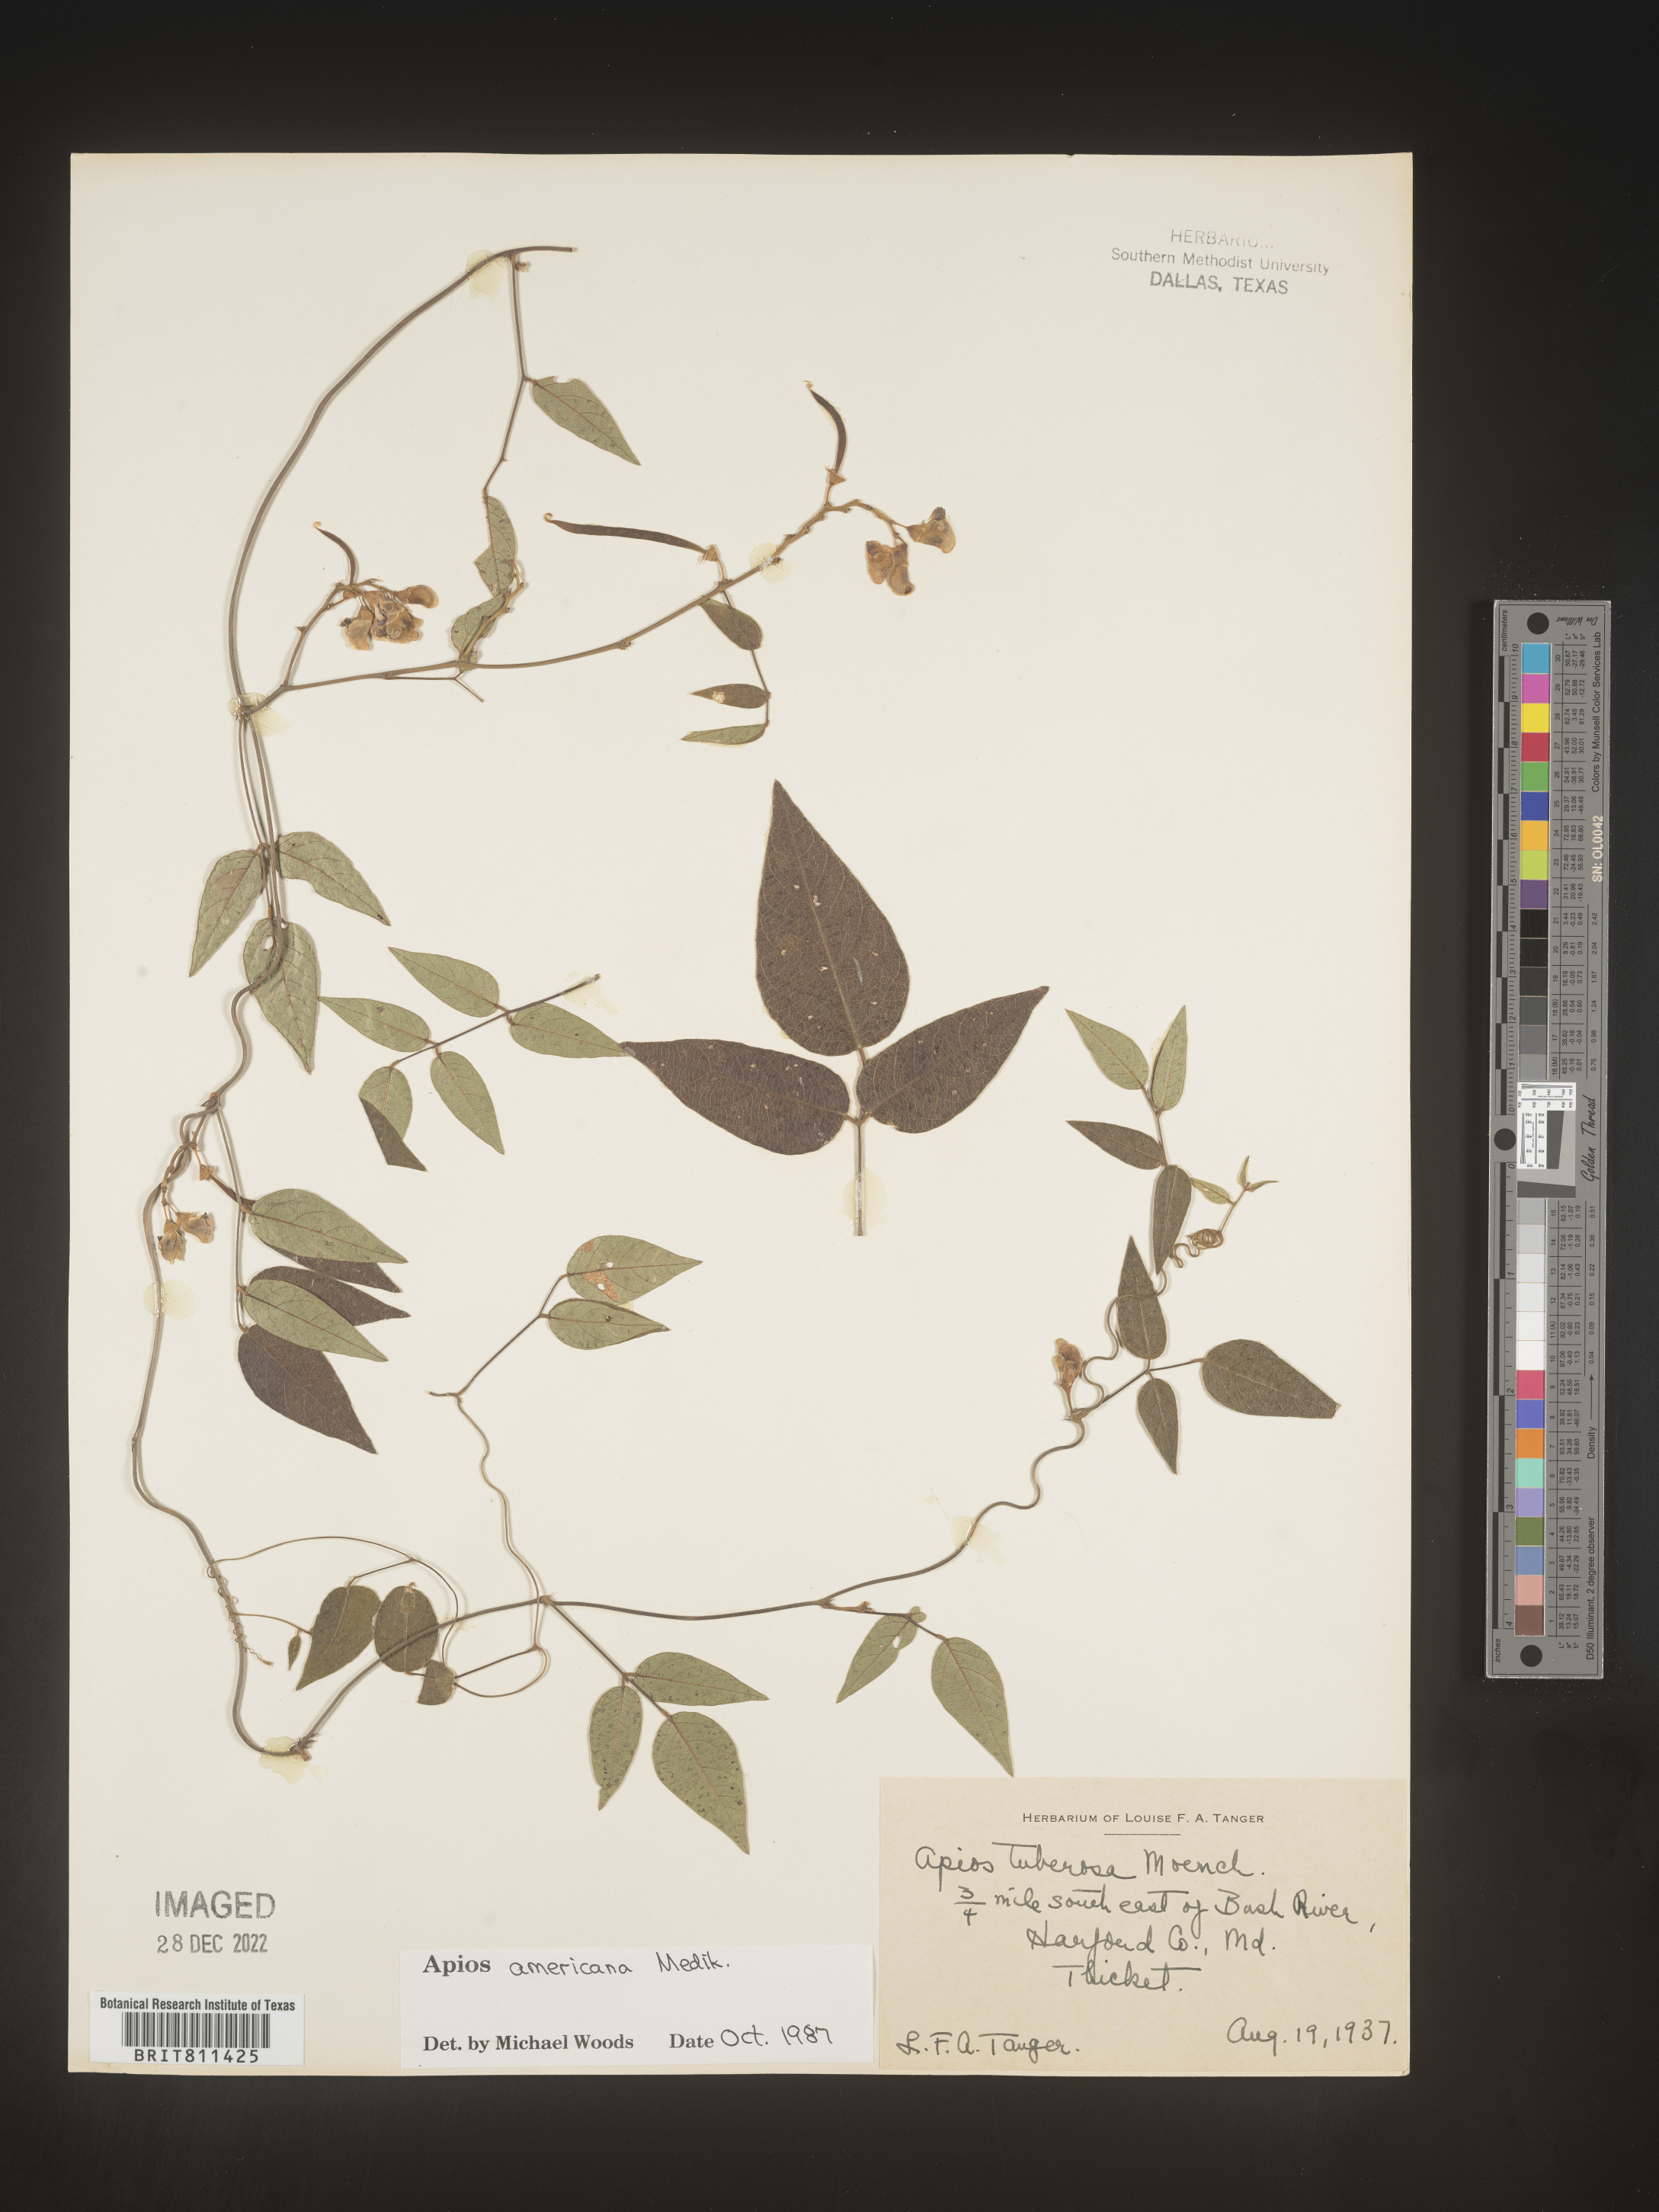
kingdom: Plantae
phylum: Tracheophyta
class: Magnoliopsida
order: Fabales
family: Fabaceae
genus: Apios
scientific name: Apios americana
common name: American potato-bean
